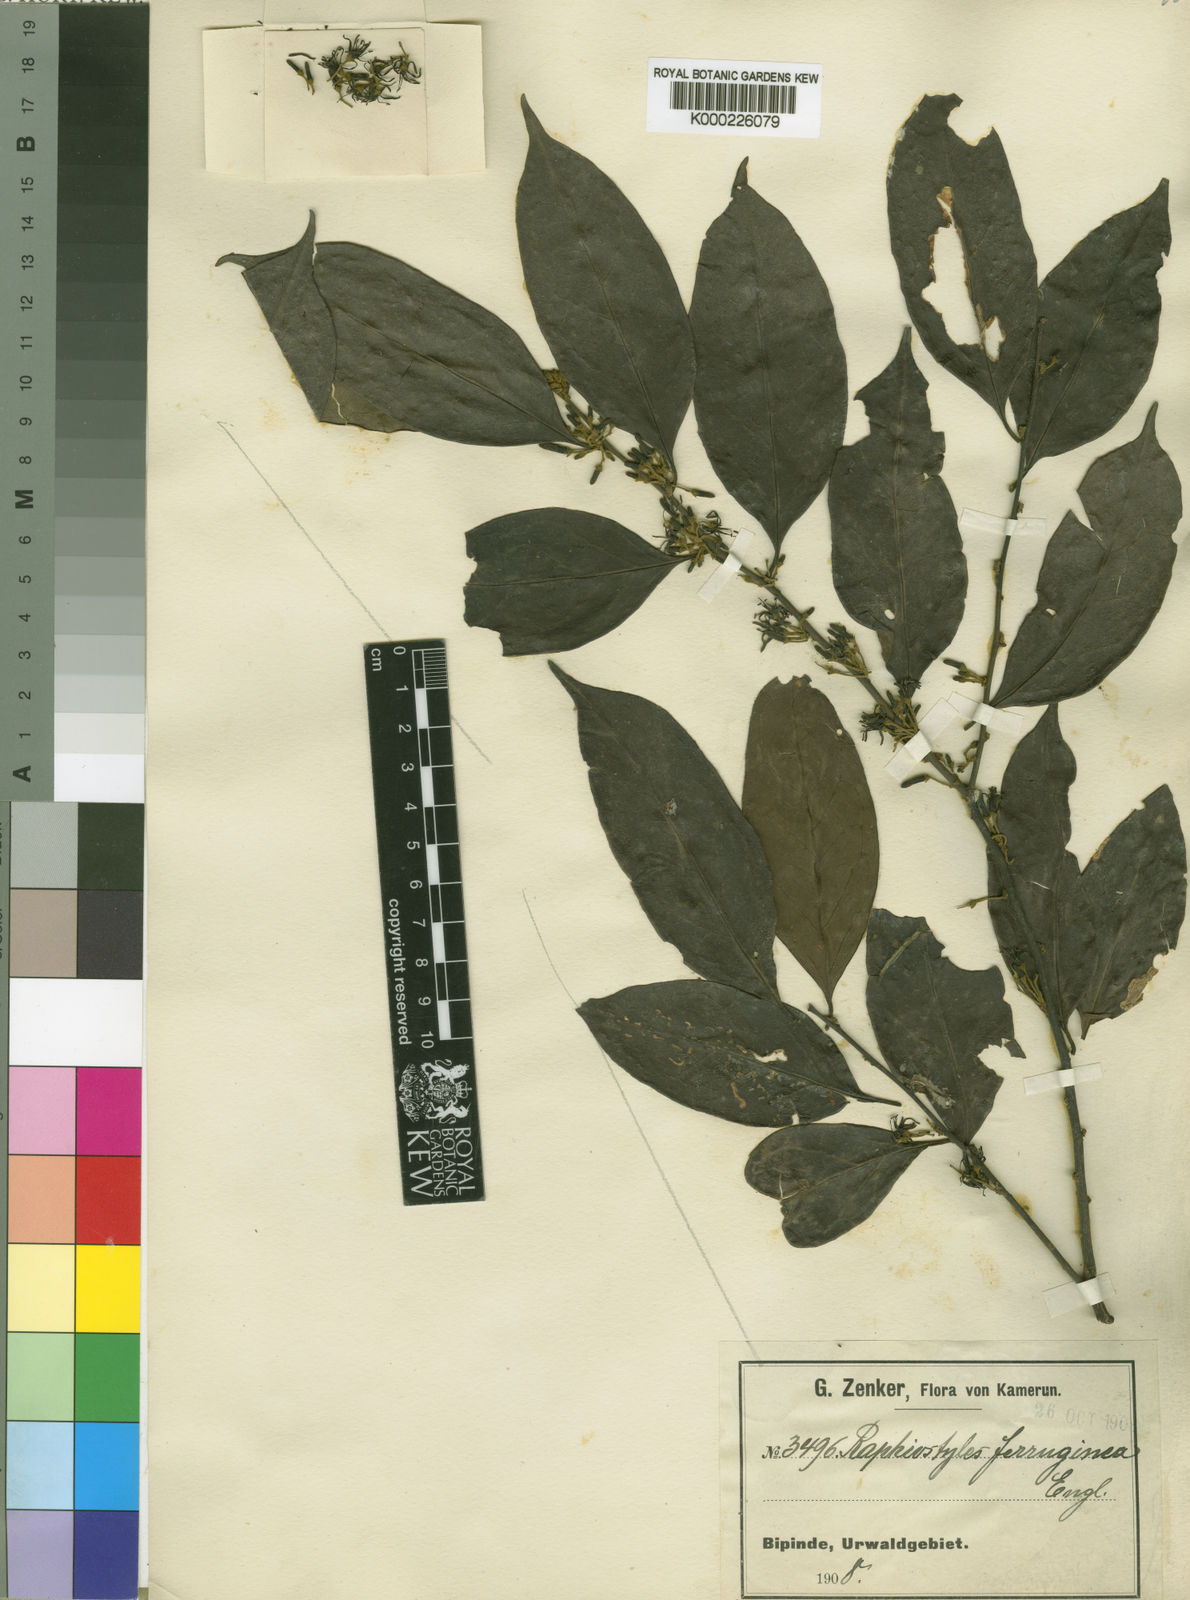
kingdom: Plantae
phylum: Tracheophyta
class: Magnoliopsida
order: Metteniusales
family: Metteniusaceae
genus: Rhaphiostylis
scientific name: Rhaphiostylis ferruginea
